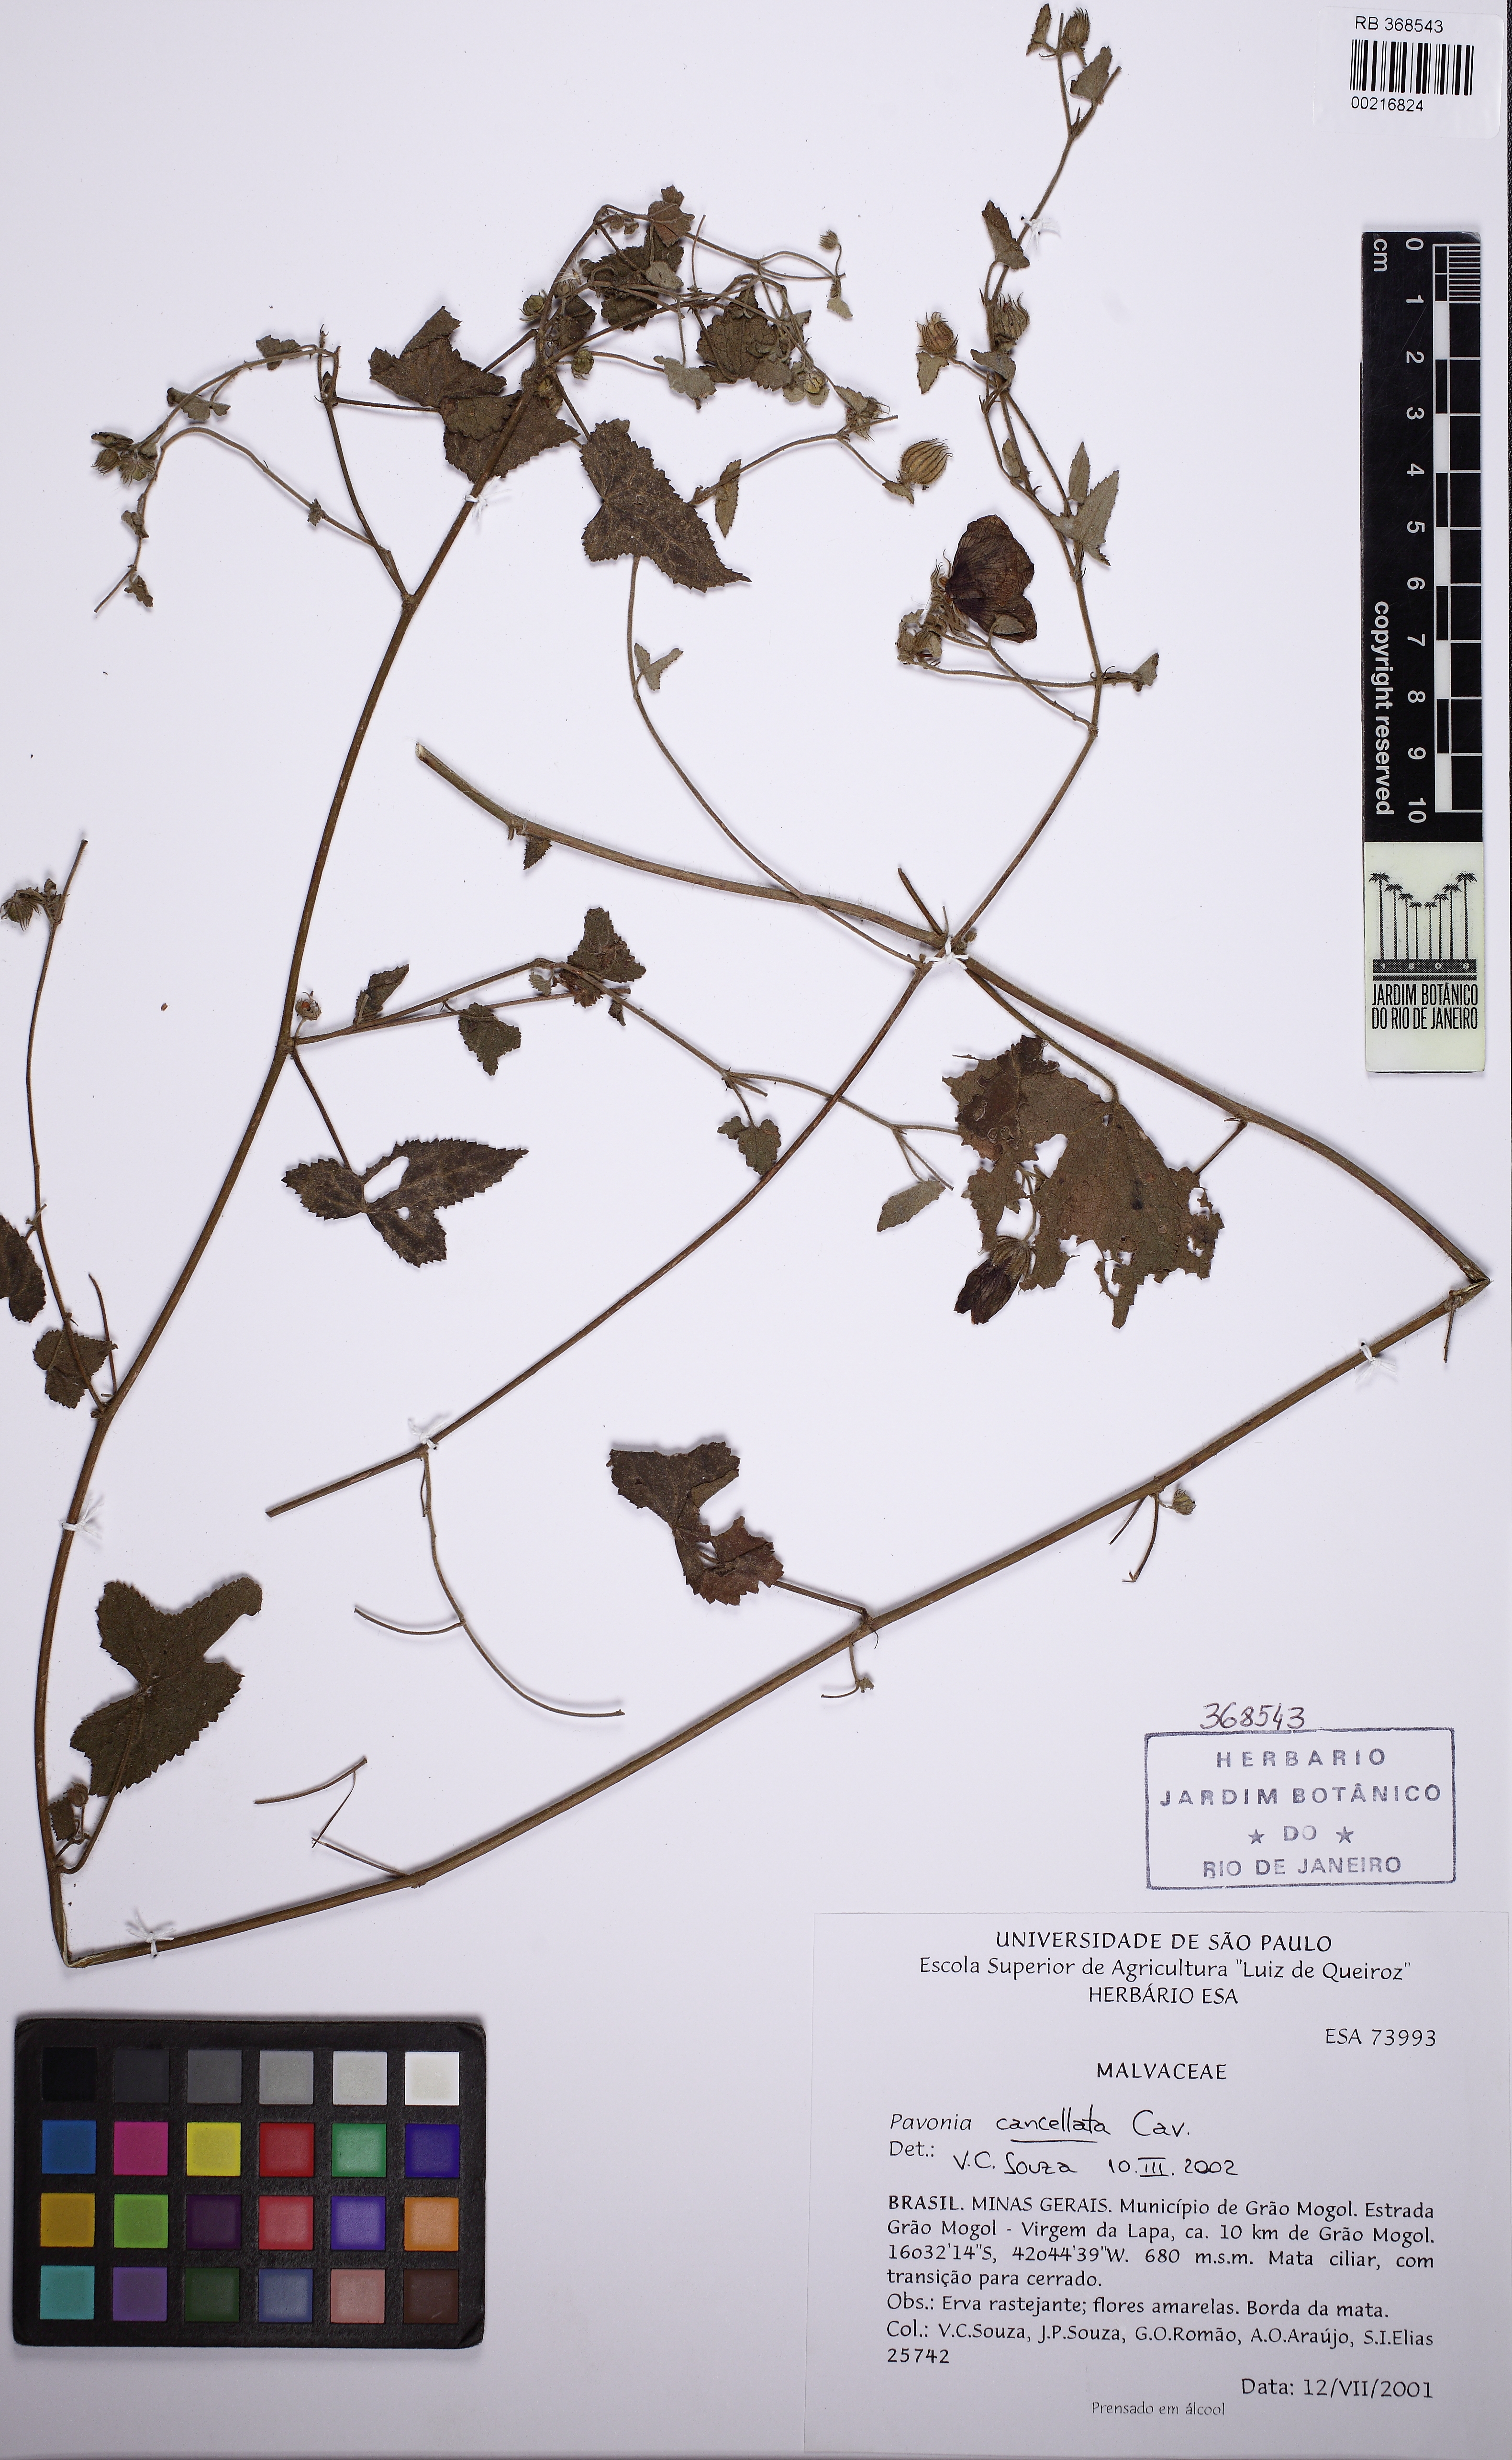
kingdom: Plantae
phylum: Tracheophyta
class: Magnoliopsida
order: Malvales
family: Malvaceae
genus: Pavonia
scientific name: Pavonia cancellata
